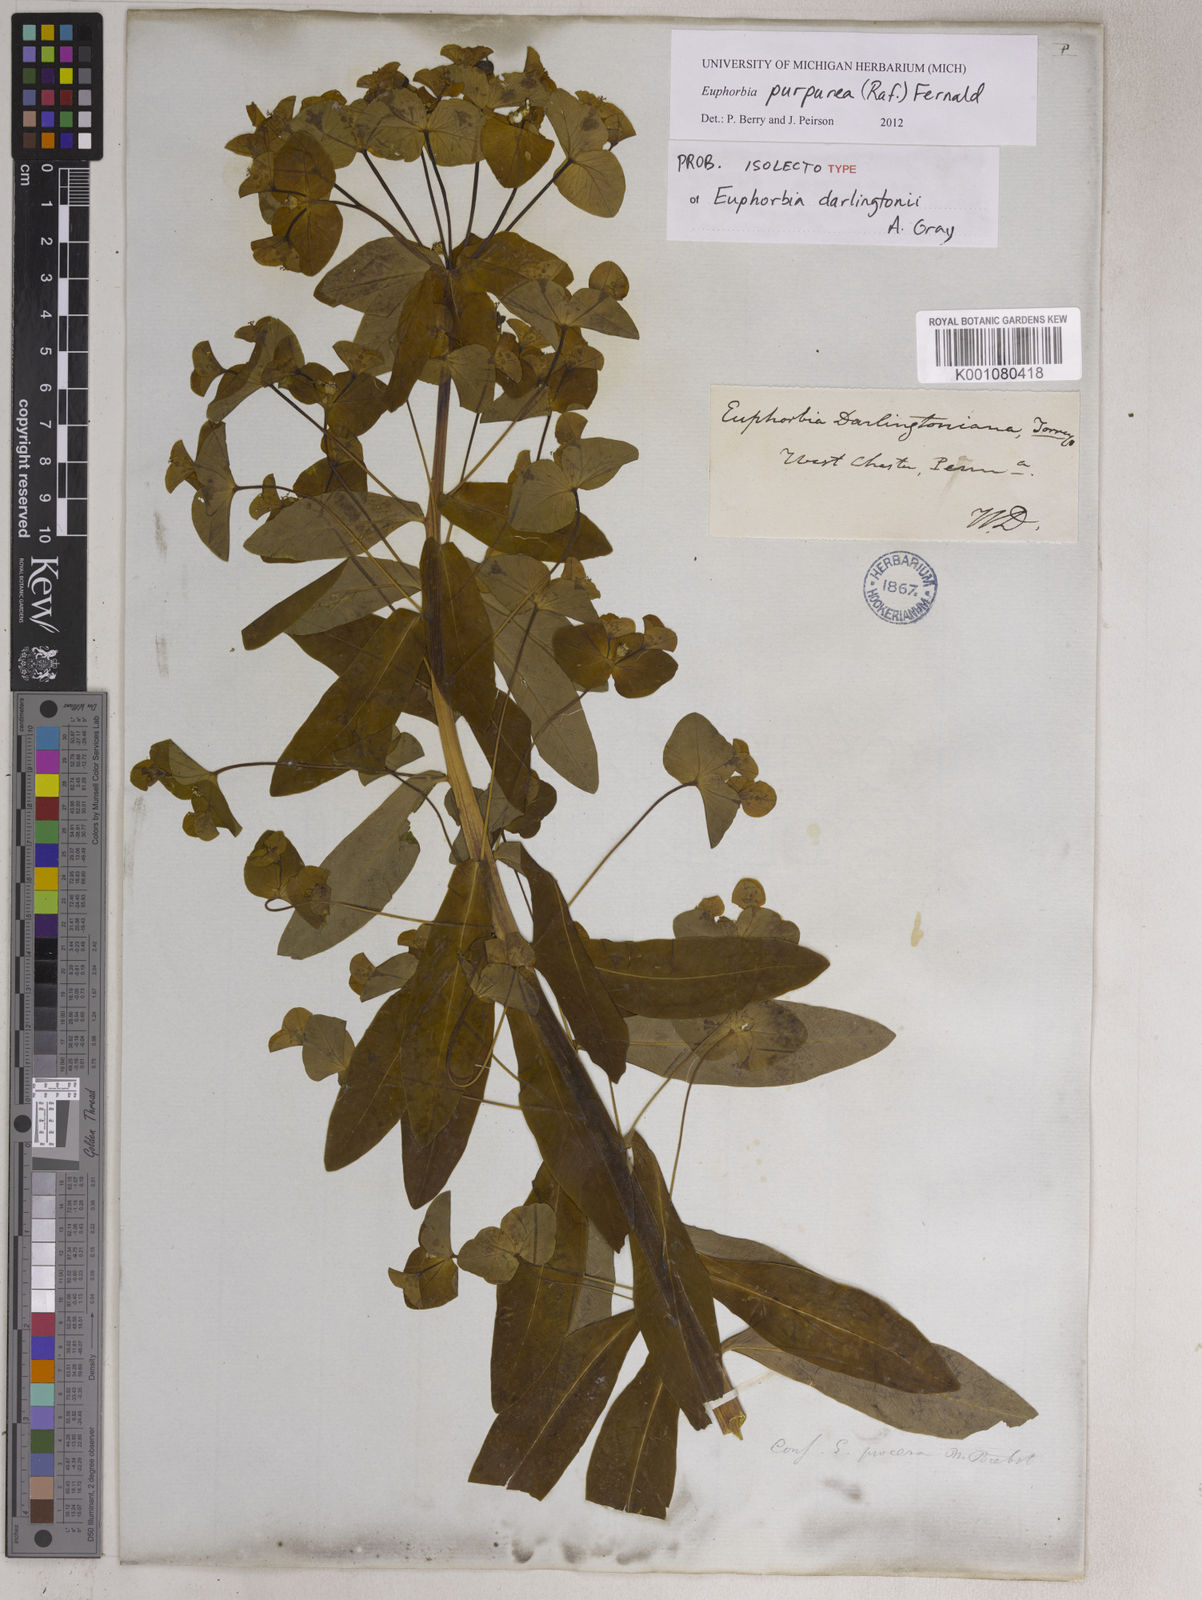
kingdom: Plantae
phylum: Tracheophyta
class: Magnoliopsida
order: Malpighiales
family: Euphorbiaceae
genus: Euphorbia
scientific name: Euphorbia purpurea
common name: Darlington's spurge
